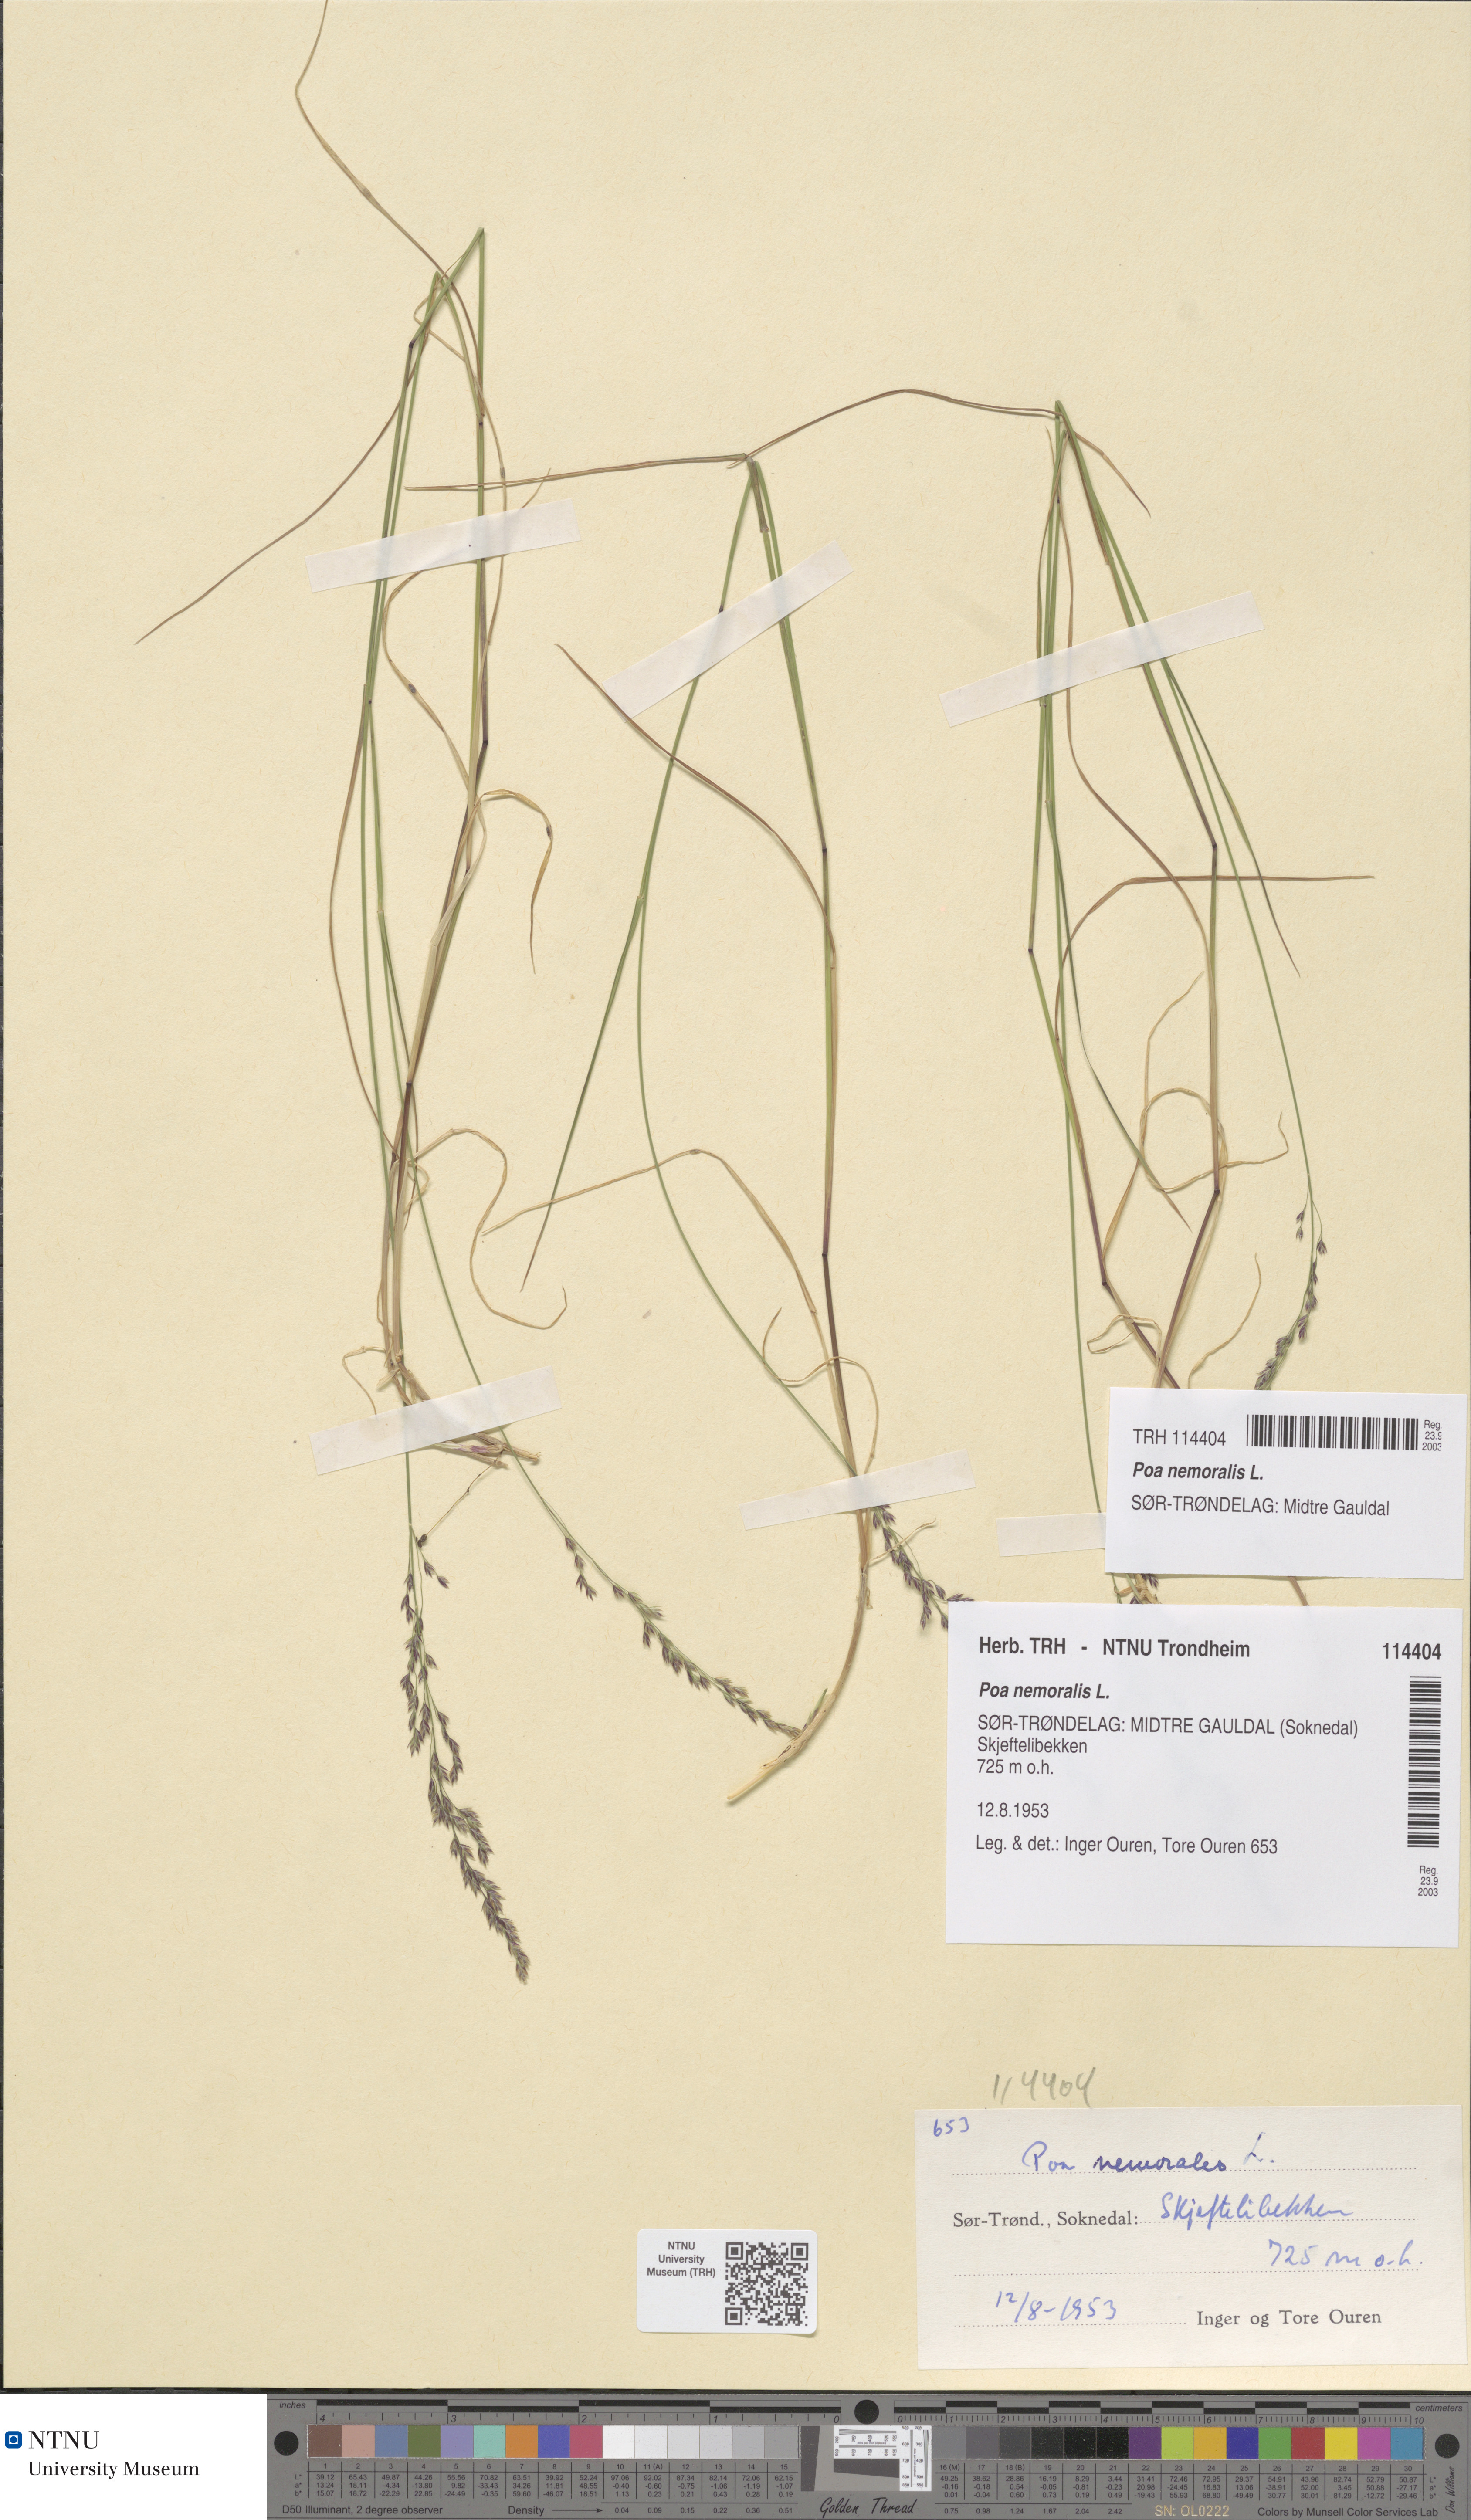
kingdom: Plantae
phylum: Tracheophyta
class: Liliopsida
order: Poales
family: Poaceae
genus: Poa
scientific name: Poa nemoralis
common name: Wood bluegrass
